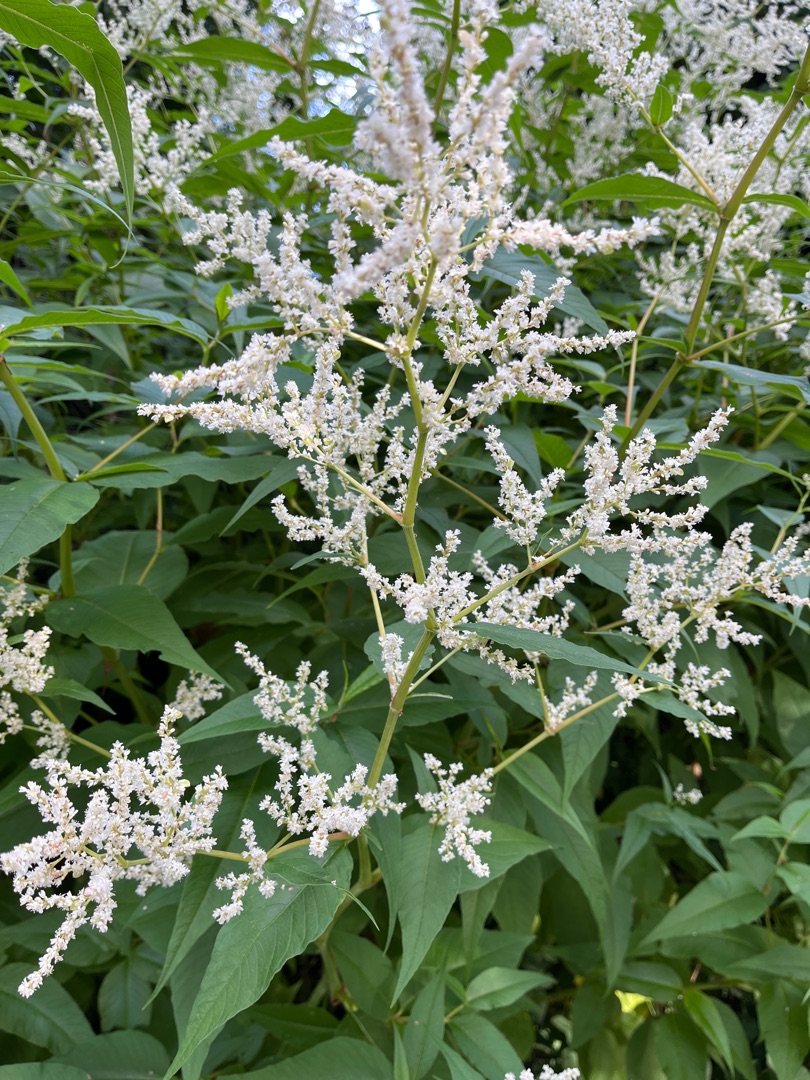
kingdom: Plantae
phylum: Tracheophyta
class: Magnoliopsida
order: Caryophyllales
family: Polygonaceae
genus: Koenigia
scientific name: Koenigia fennica
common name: Finsk pileurt
